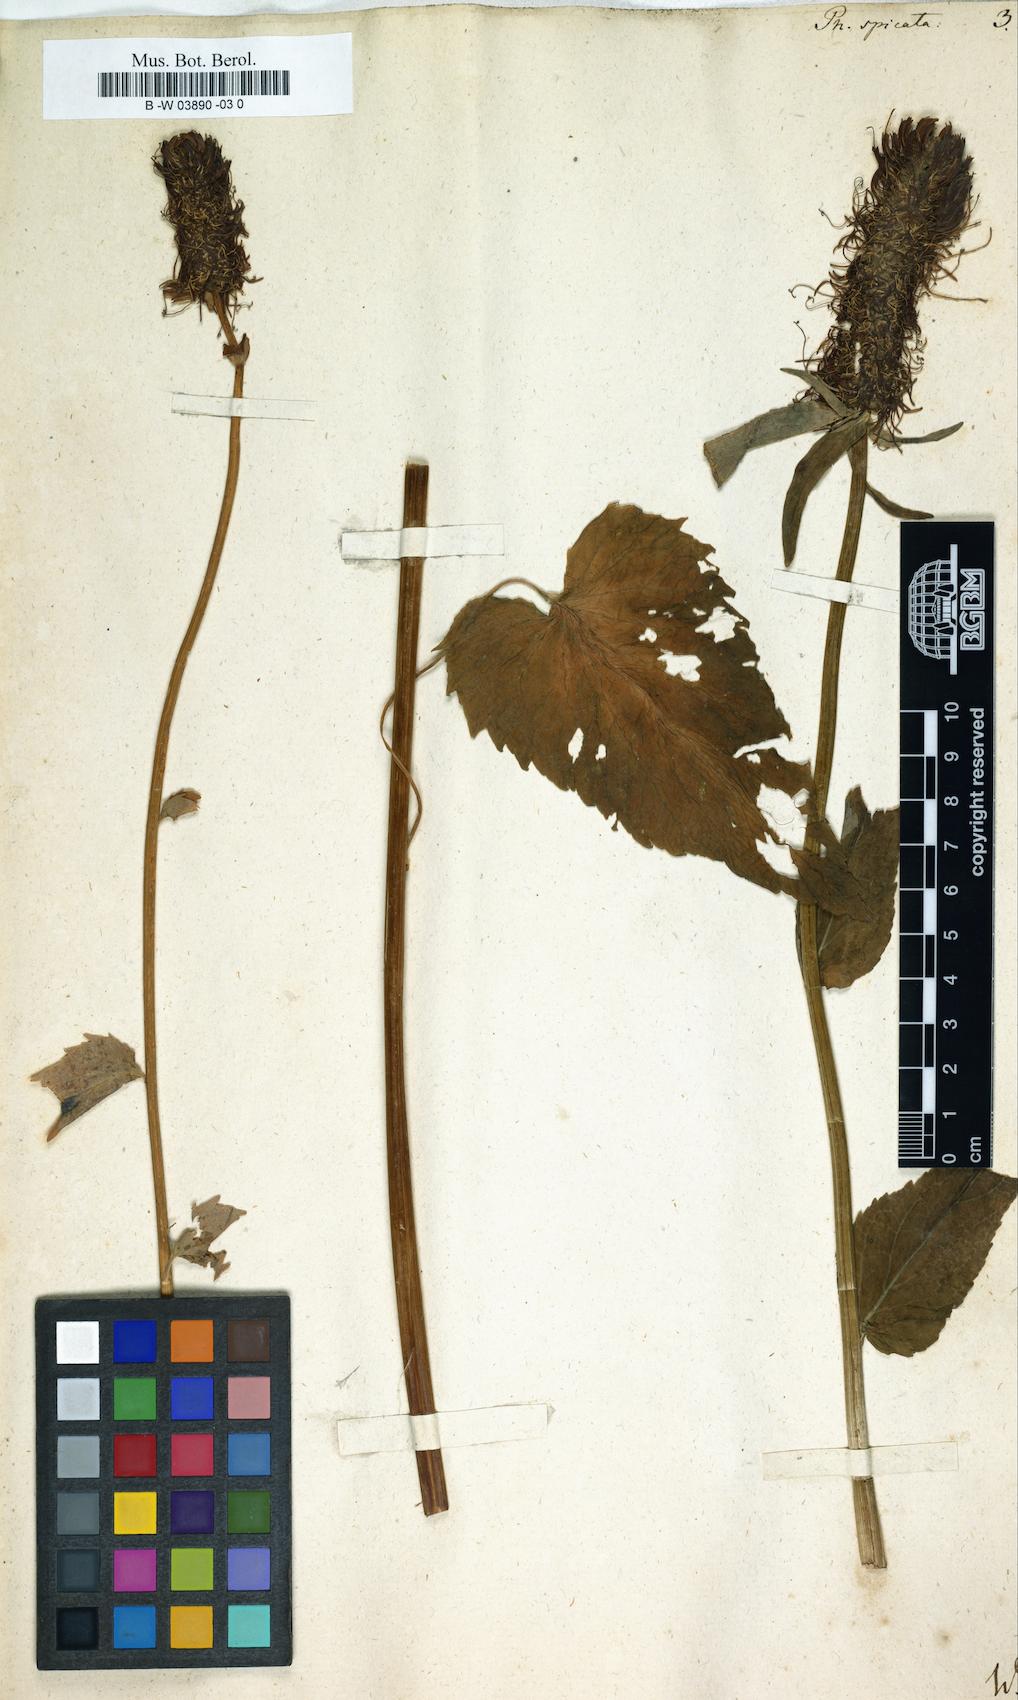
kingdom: Plantae
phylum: Tracheophyta
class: Magnoliopsida
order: Asterales
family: Campanulaceae
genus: Phyteuma
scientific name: Phyteuma spicatum
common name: Spiked rampion
